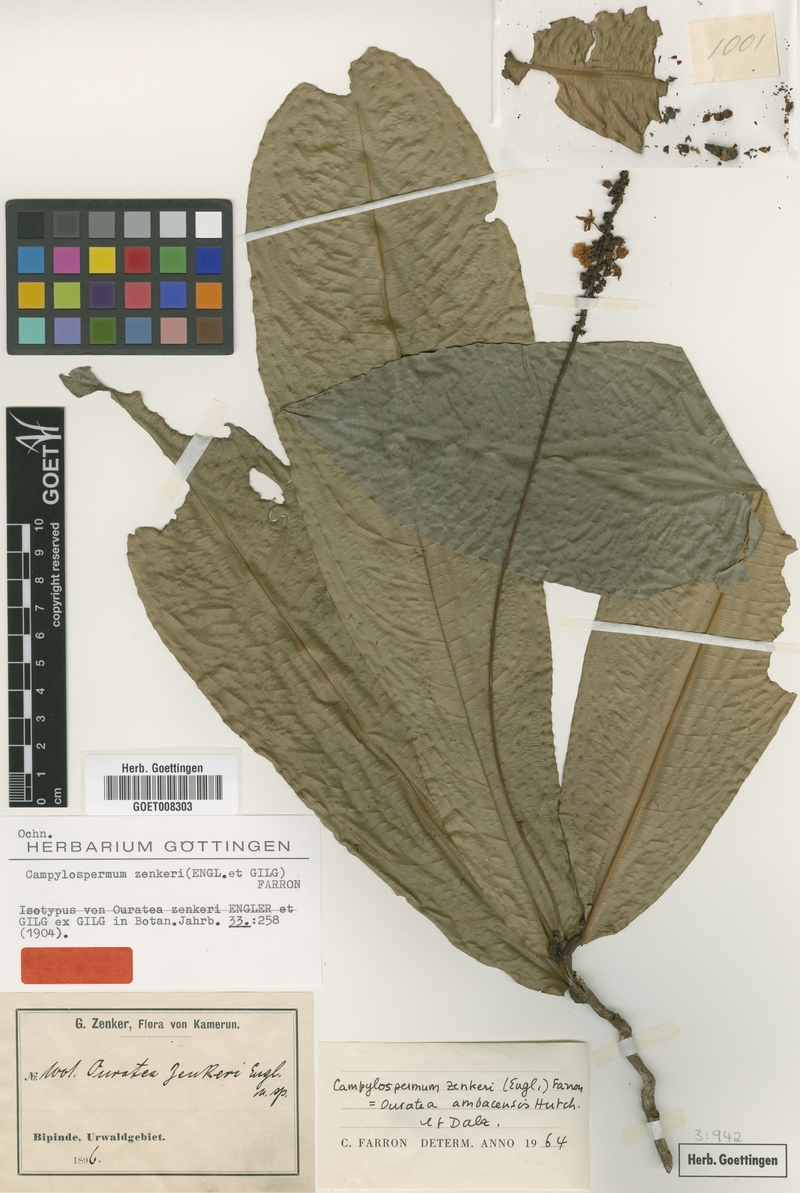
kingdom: Plantae
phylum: Tracheophyta
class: Magnoliopsida
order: Malpighiales
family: Ochnaceae
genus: Campylospermum
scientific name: Campylospermum zenkeri
